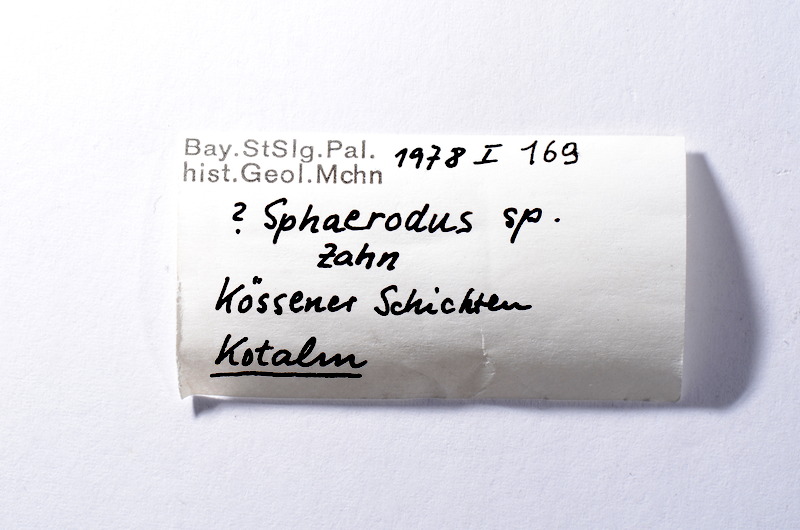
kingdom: Animalia
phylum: Chordata
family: Pycnodontidae
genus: Sphaerodus
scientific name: Sphaerodus
